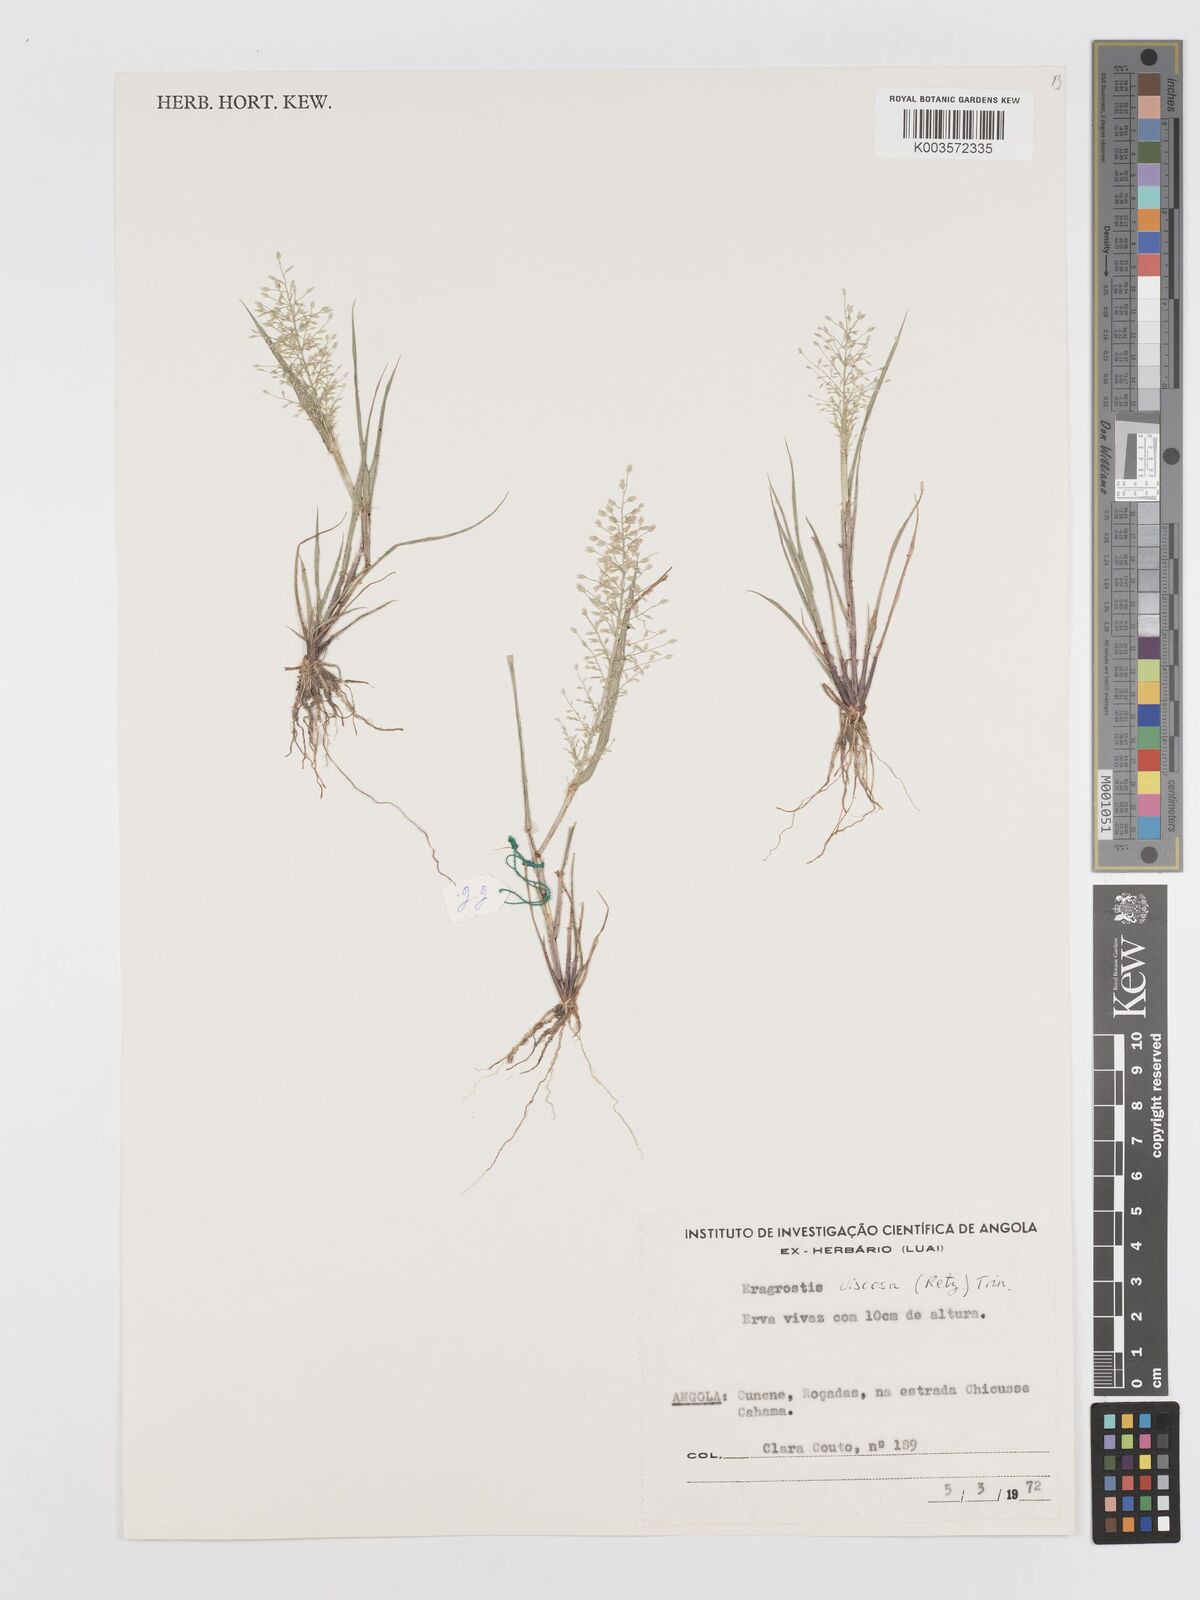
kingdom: Plantae
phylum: Tracheophyta
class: Liliopsida
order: Poales
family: Poaceae
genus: Eragrostis
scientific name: Eragrostis
